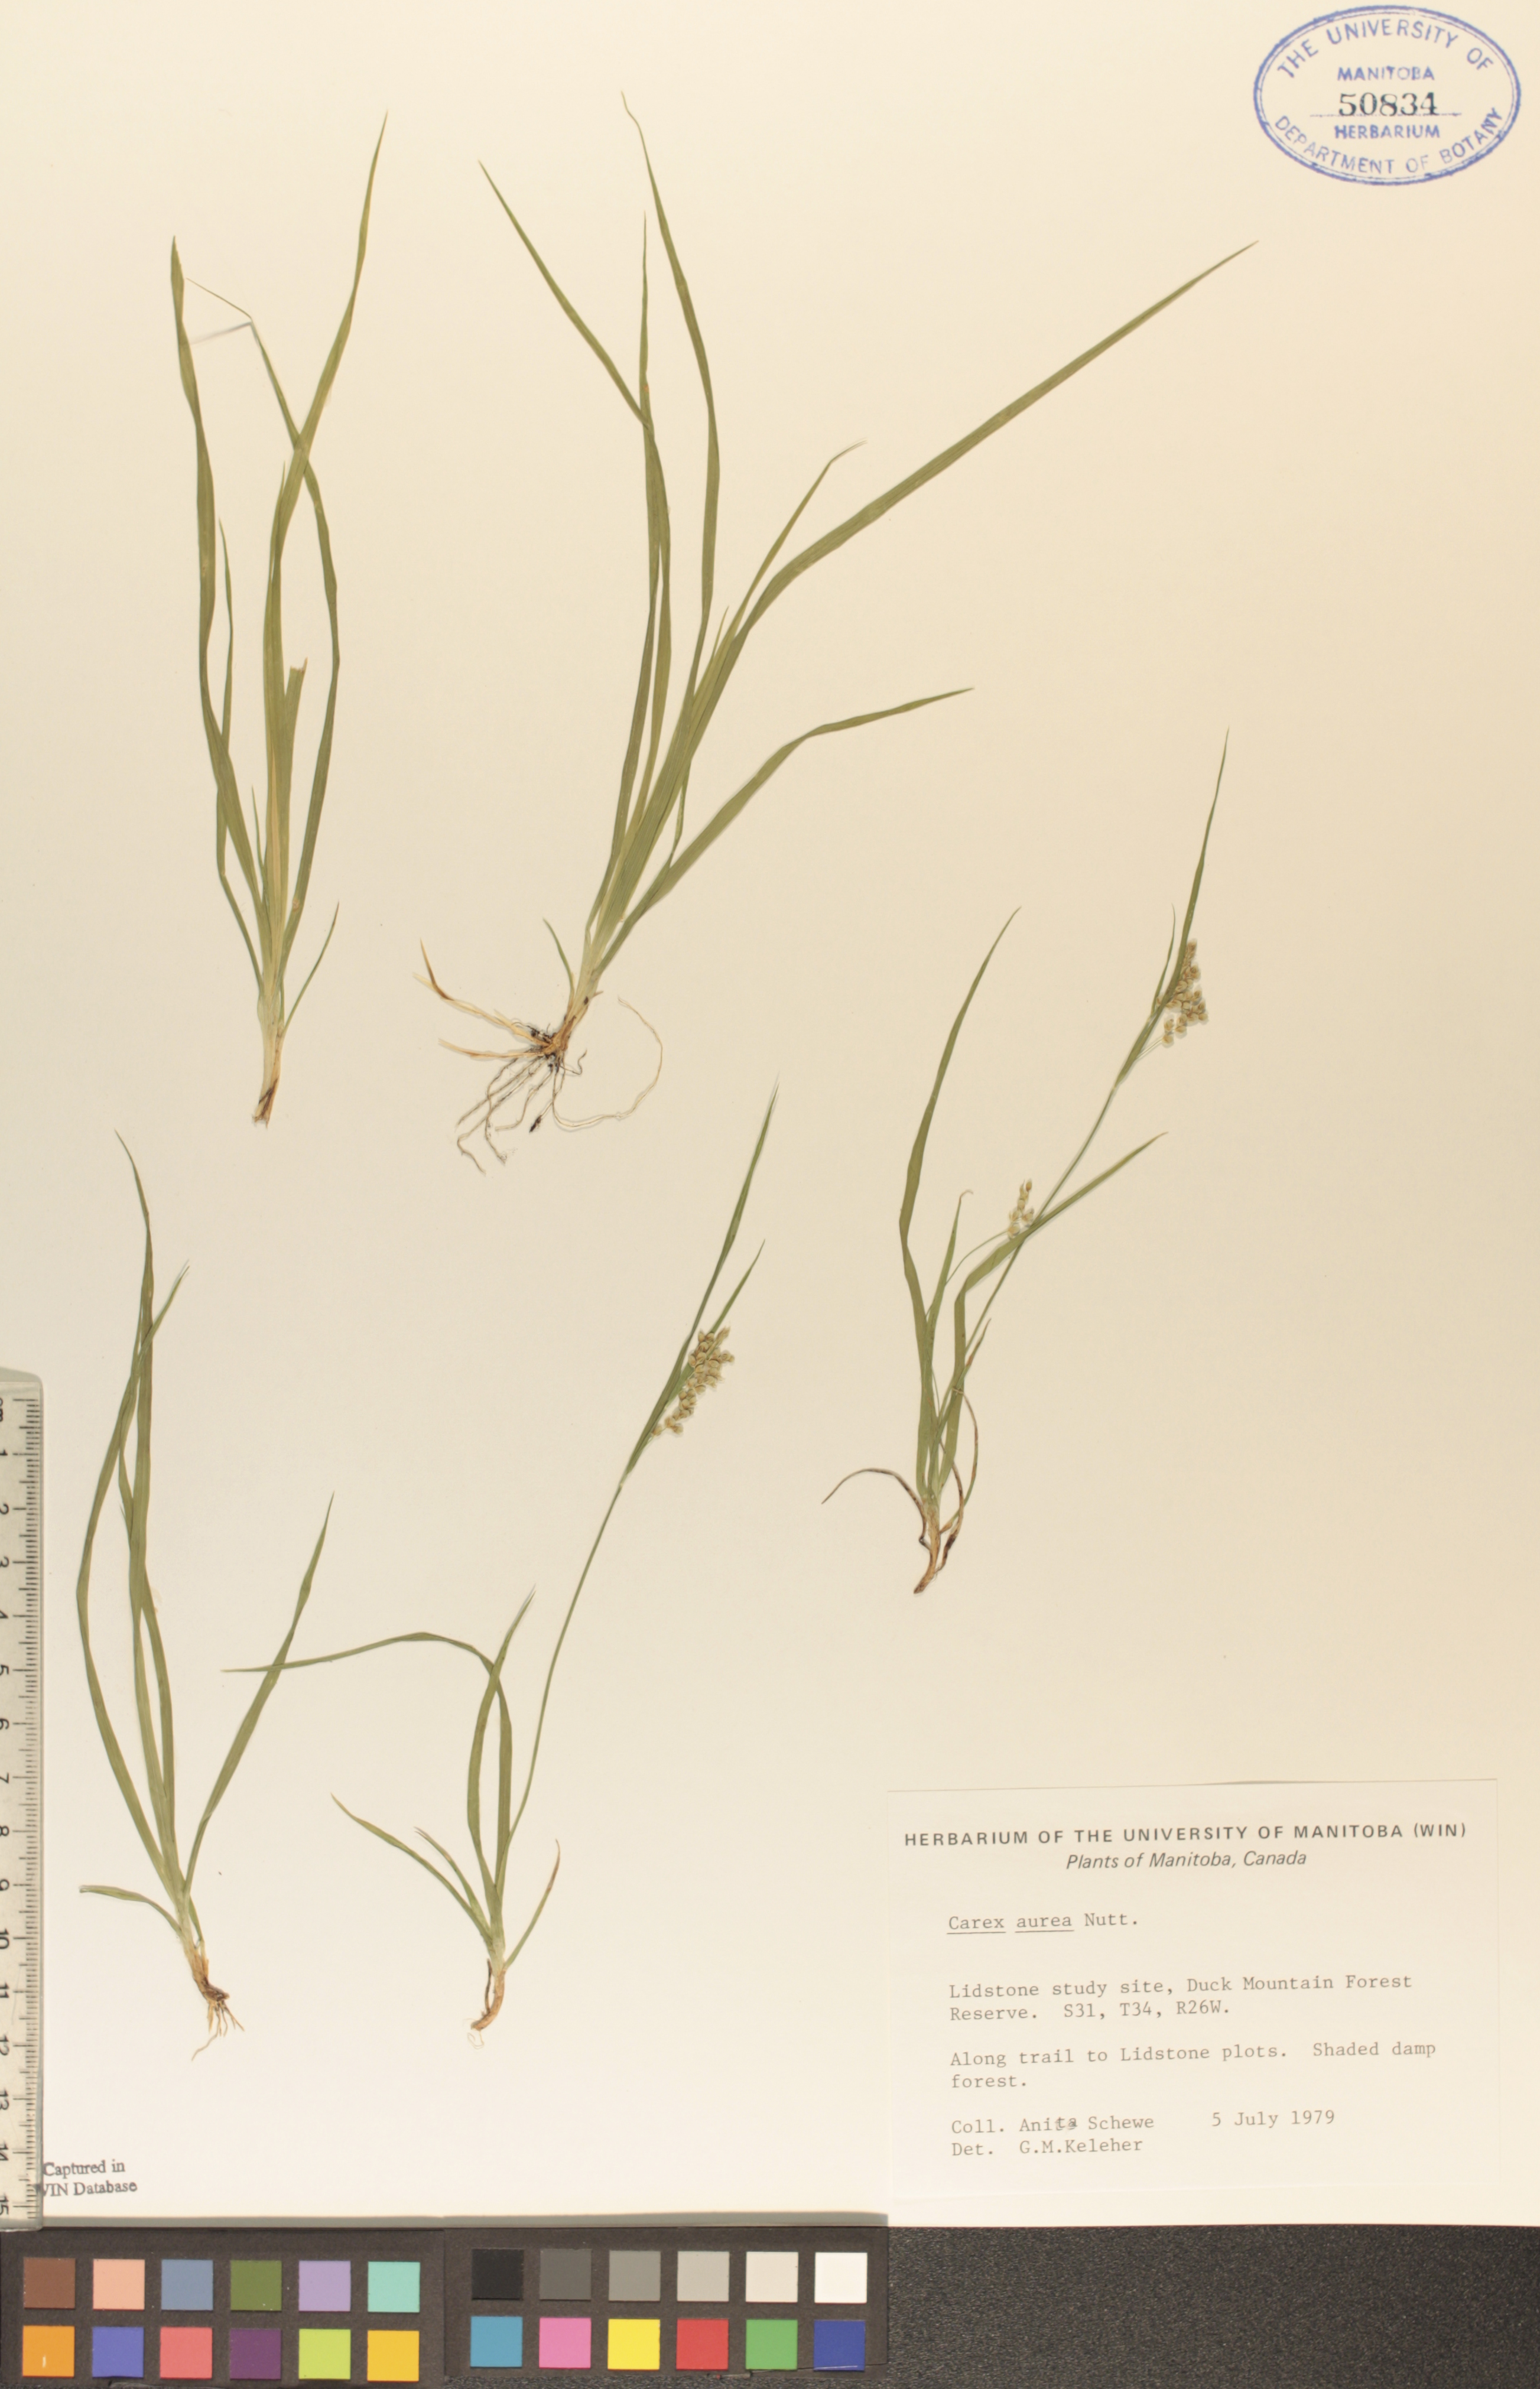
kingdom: Plantae
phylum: Tracheophyta
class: Liliopsida
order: Poales
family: Cyperaceae
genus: Carex
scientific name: Carex aurea
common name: Golden sedge
